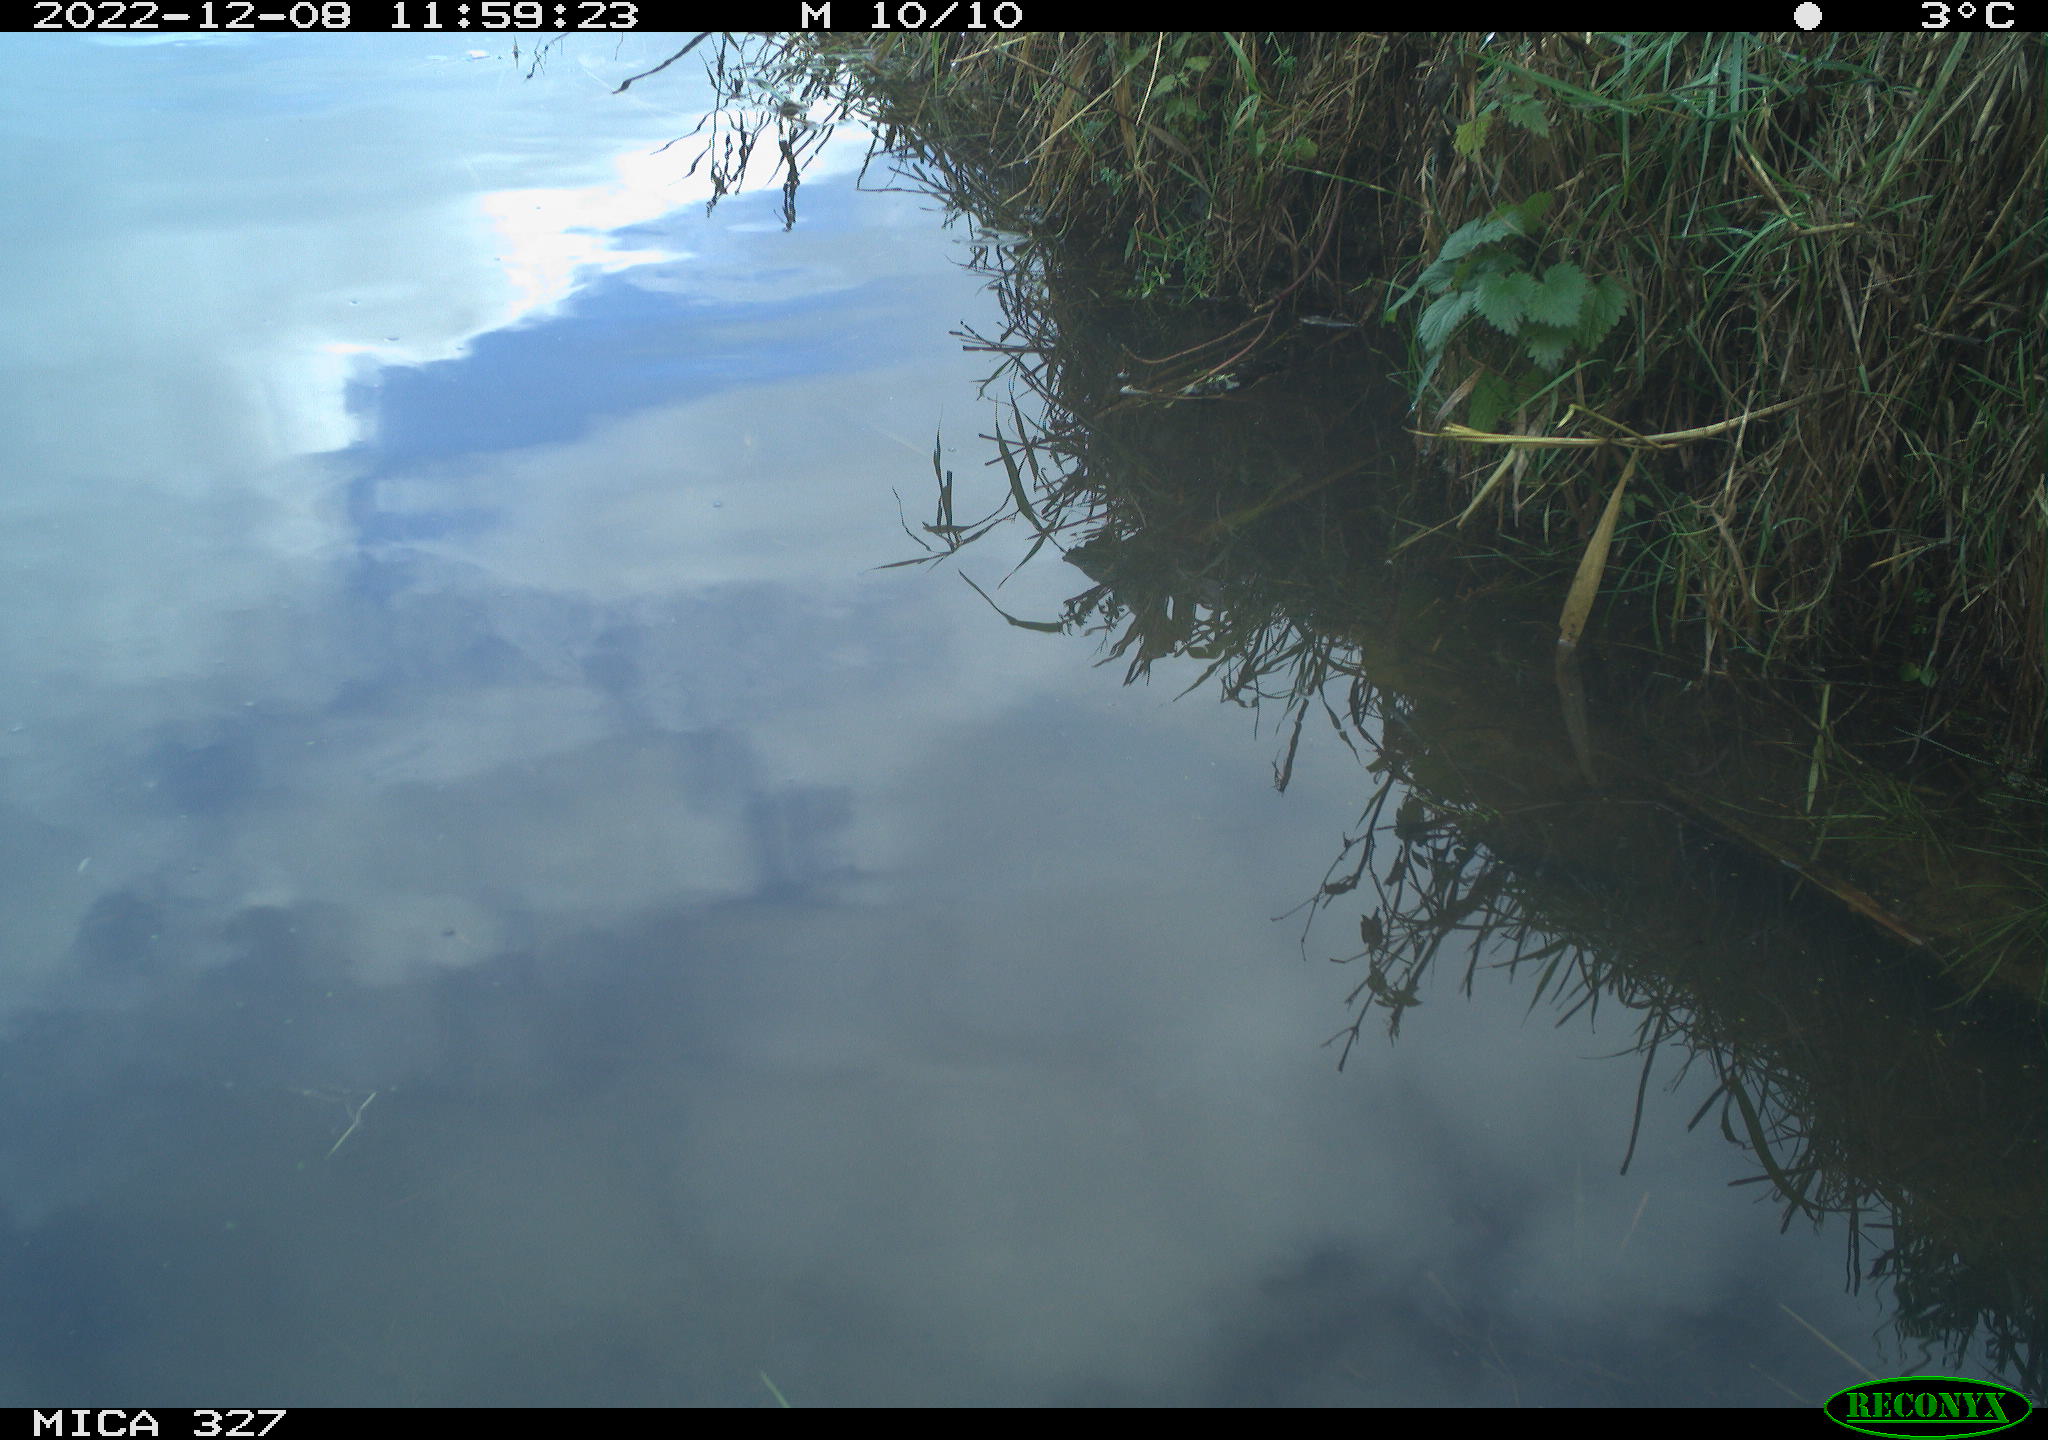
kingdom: Animalia
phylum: Chordata
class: Aves
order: Gruiformes
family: Rallidae
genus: Gallinula
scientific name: Gallinula chloropus
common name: Common moorhen
